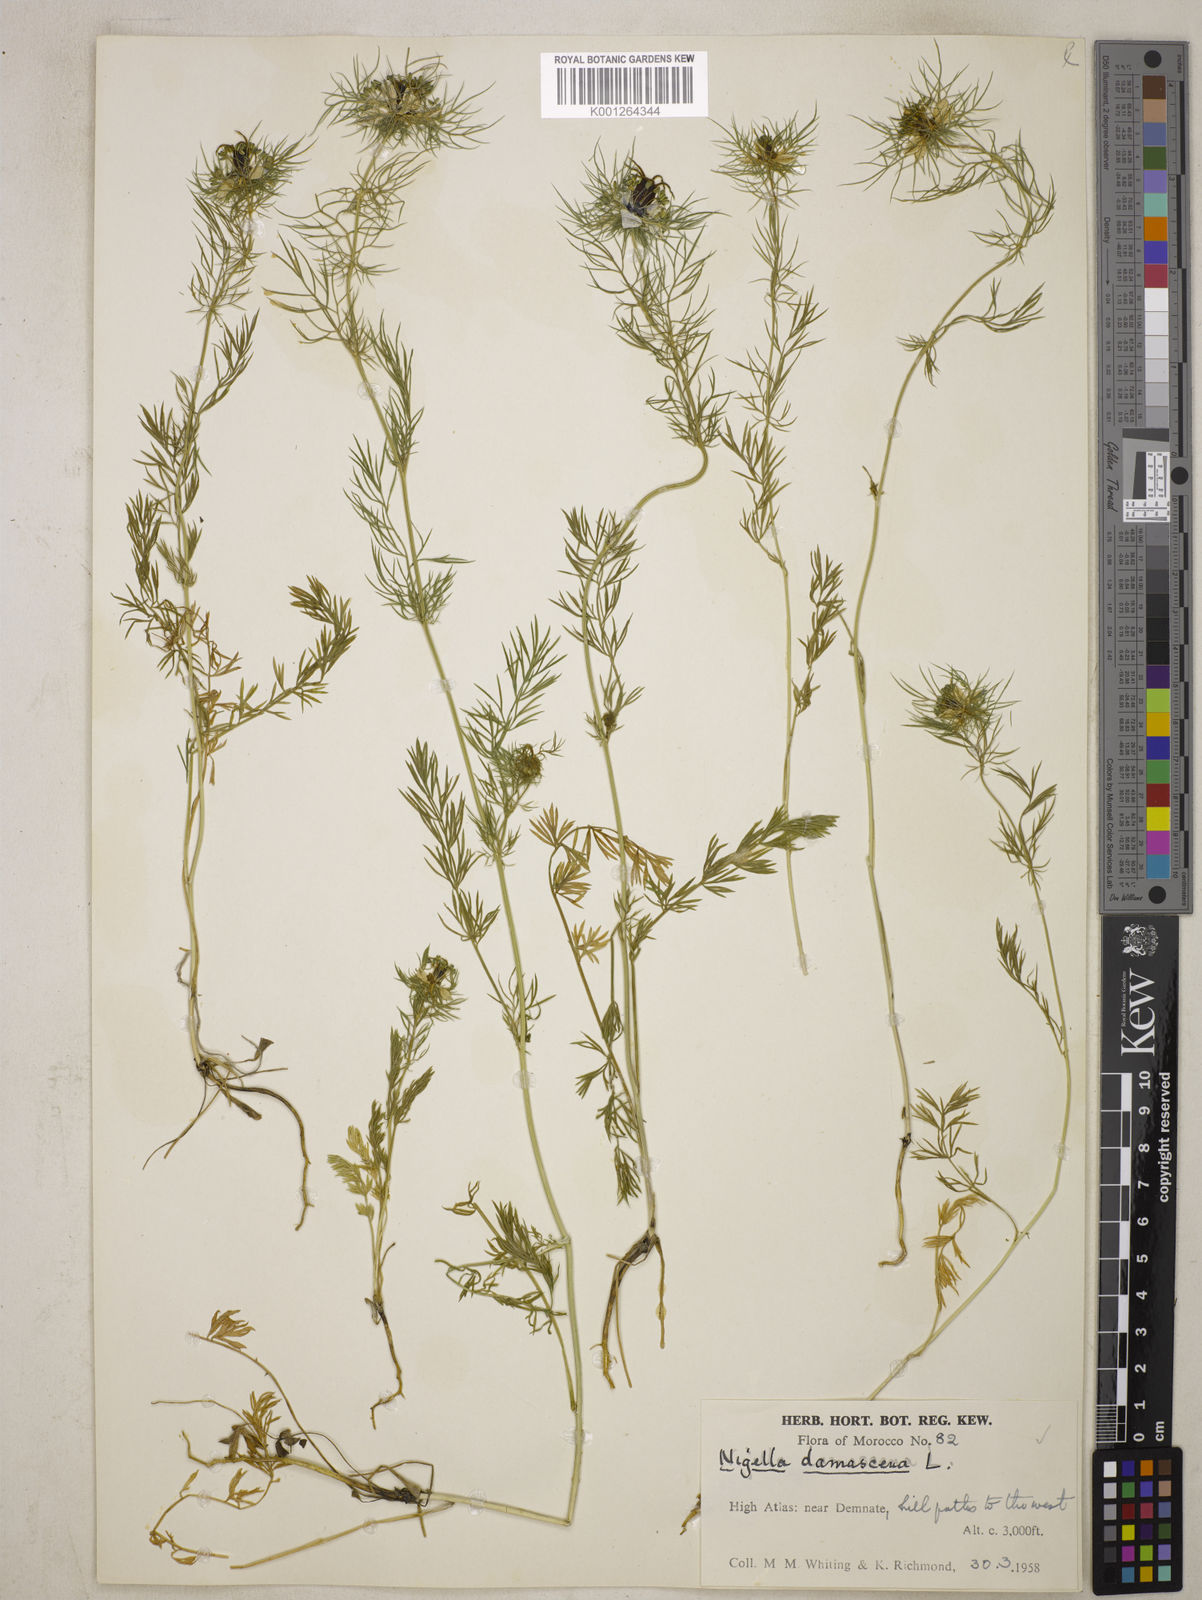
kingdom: Plantae
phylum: Tracheophyta
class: Magnoliopsida
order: Ranunculales
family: Ranunculaceae
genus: Nigella
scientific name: Nigella damascena
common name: Love-in-a-mist
